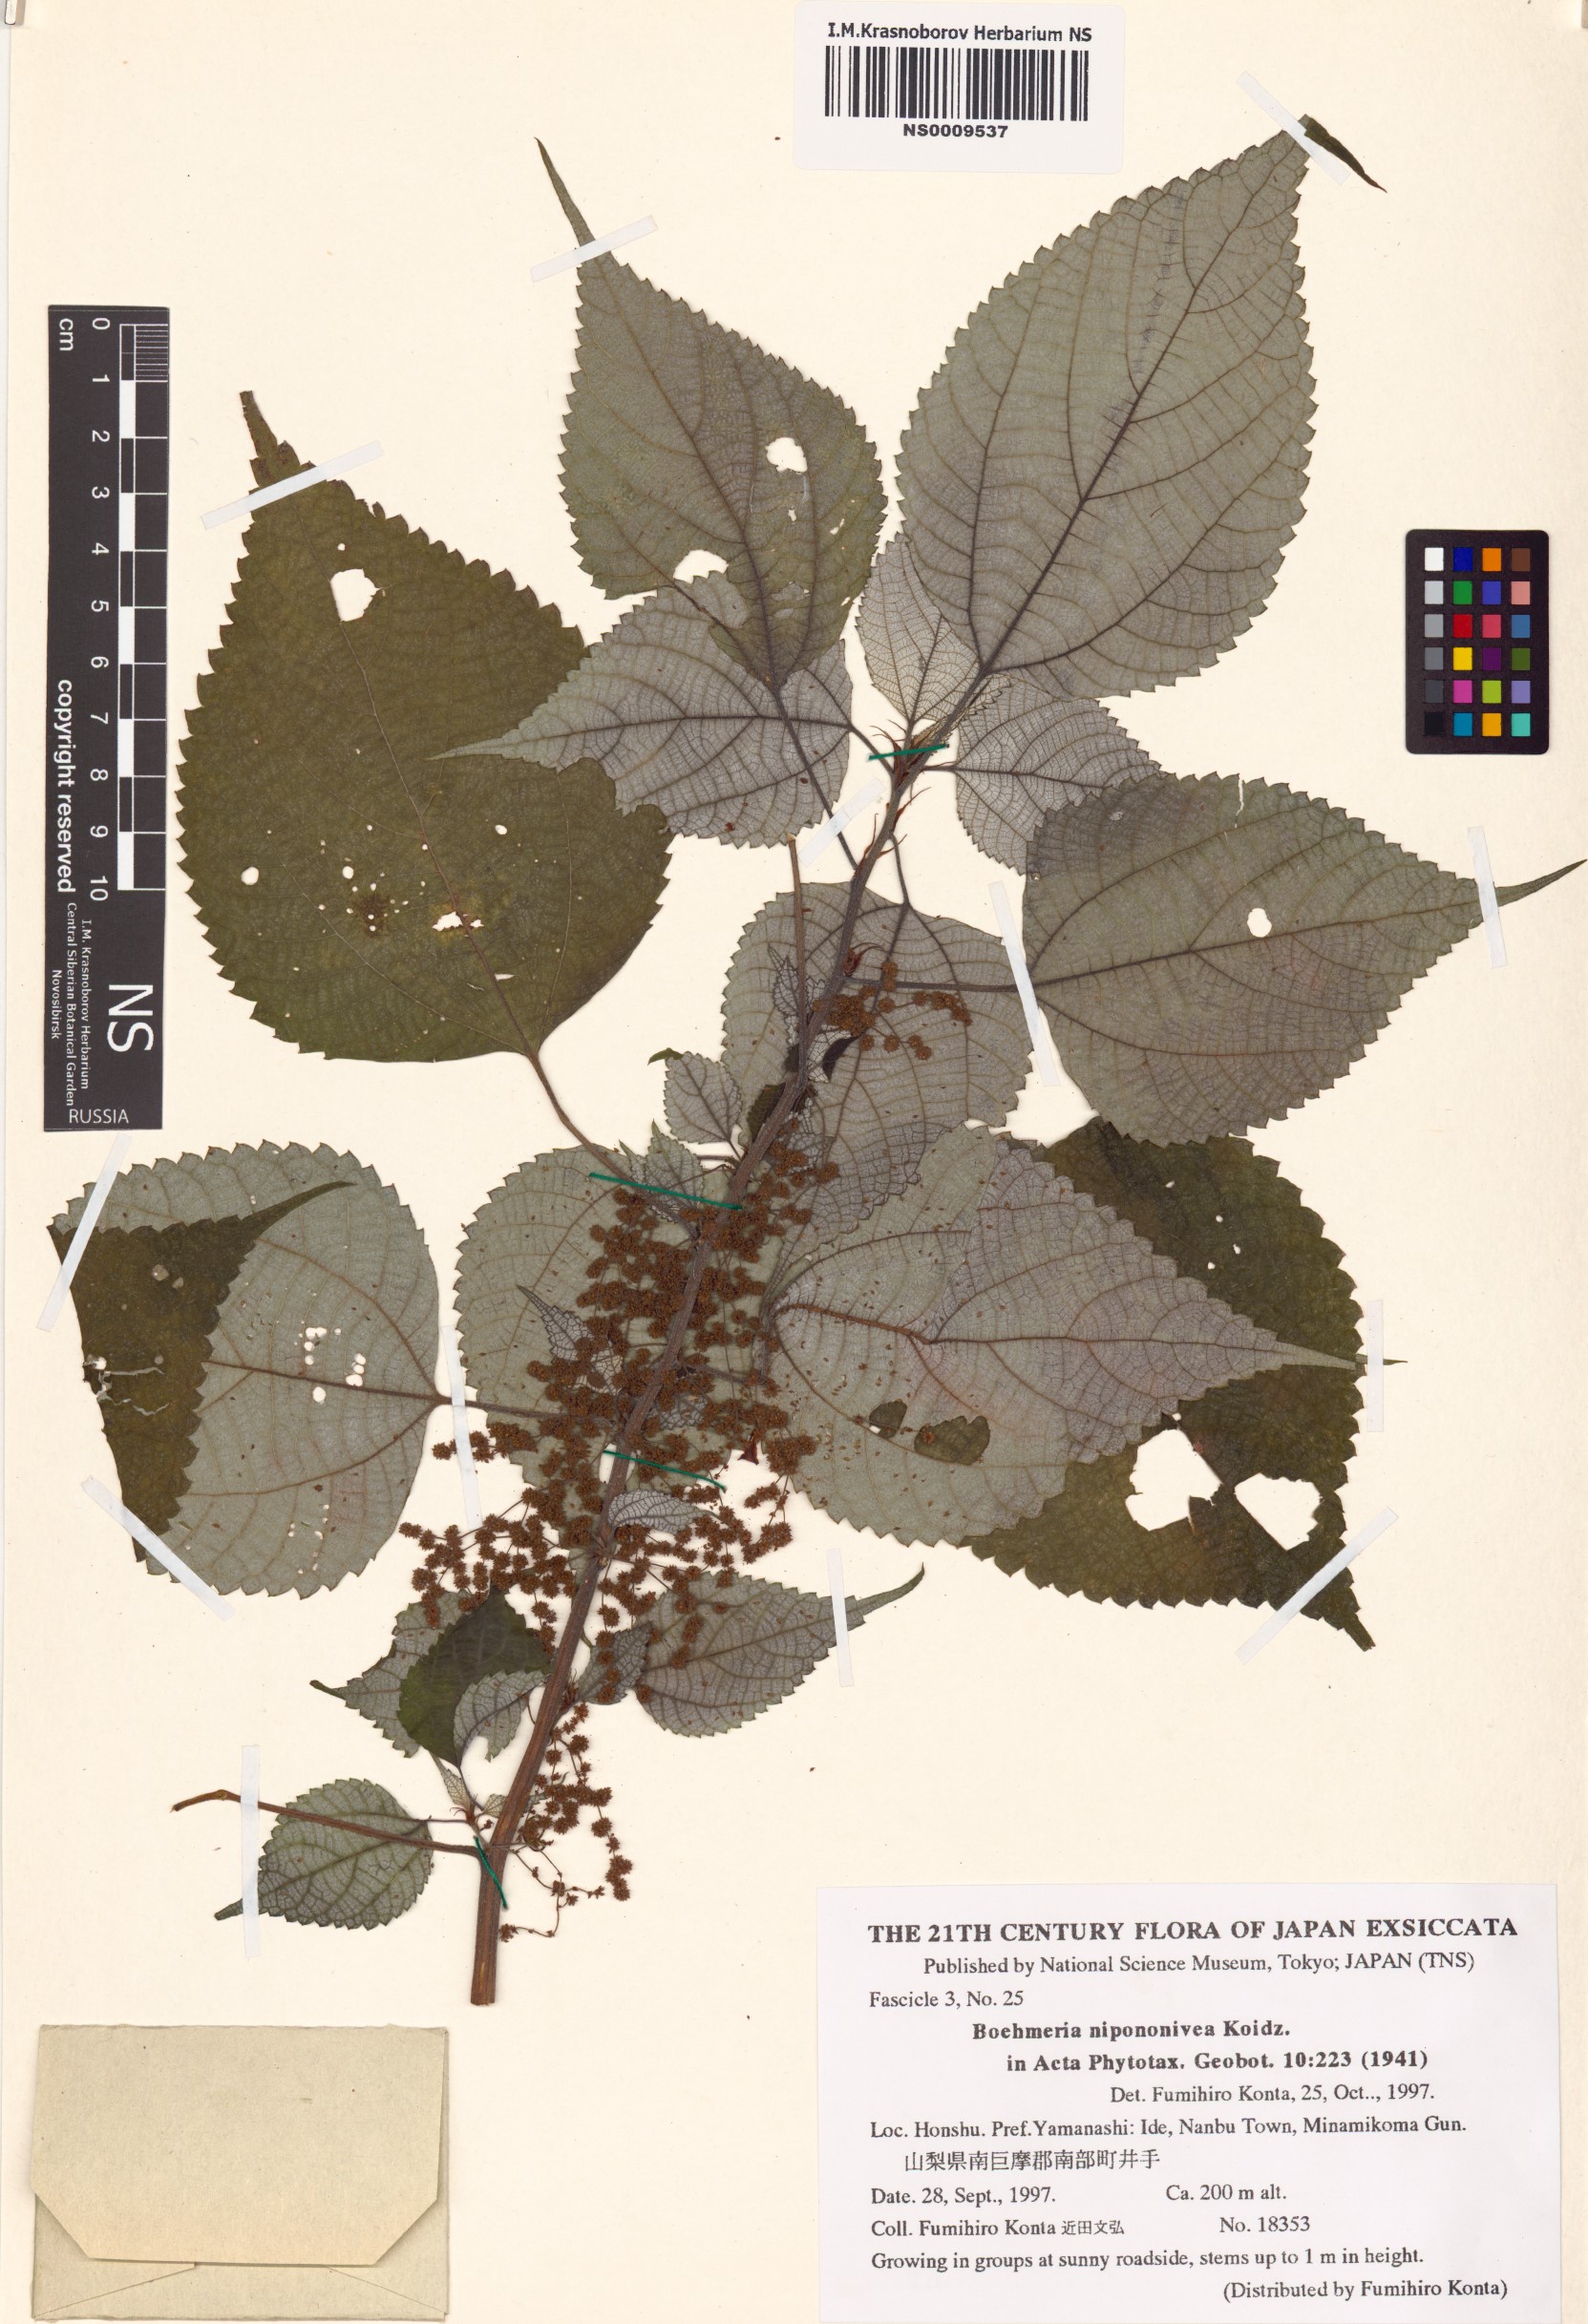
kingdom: Plantae
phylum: Tracheophyta
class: Magnoliopsida
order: Rosales
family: Urticaceae
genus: Boehmeria
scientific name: Boehmeria nivea
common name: Ramie chinese grass
